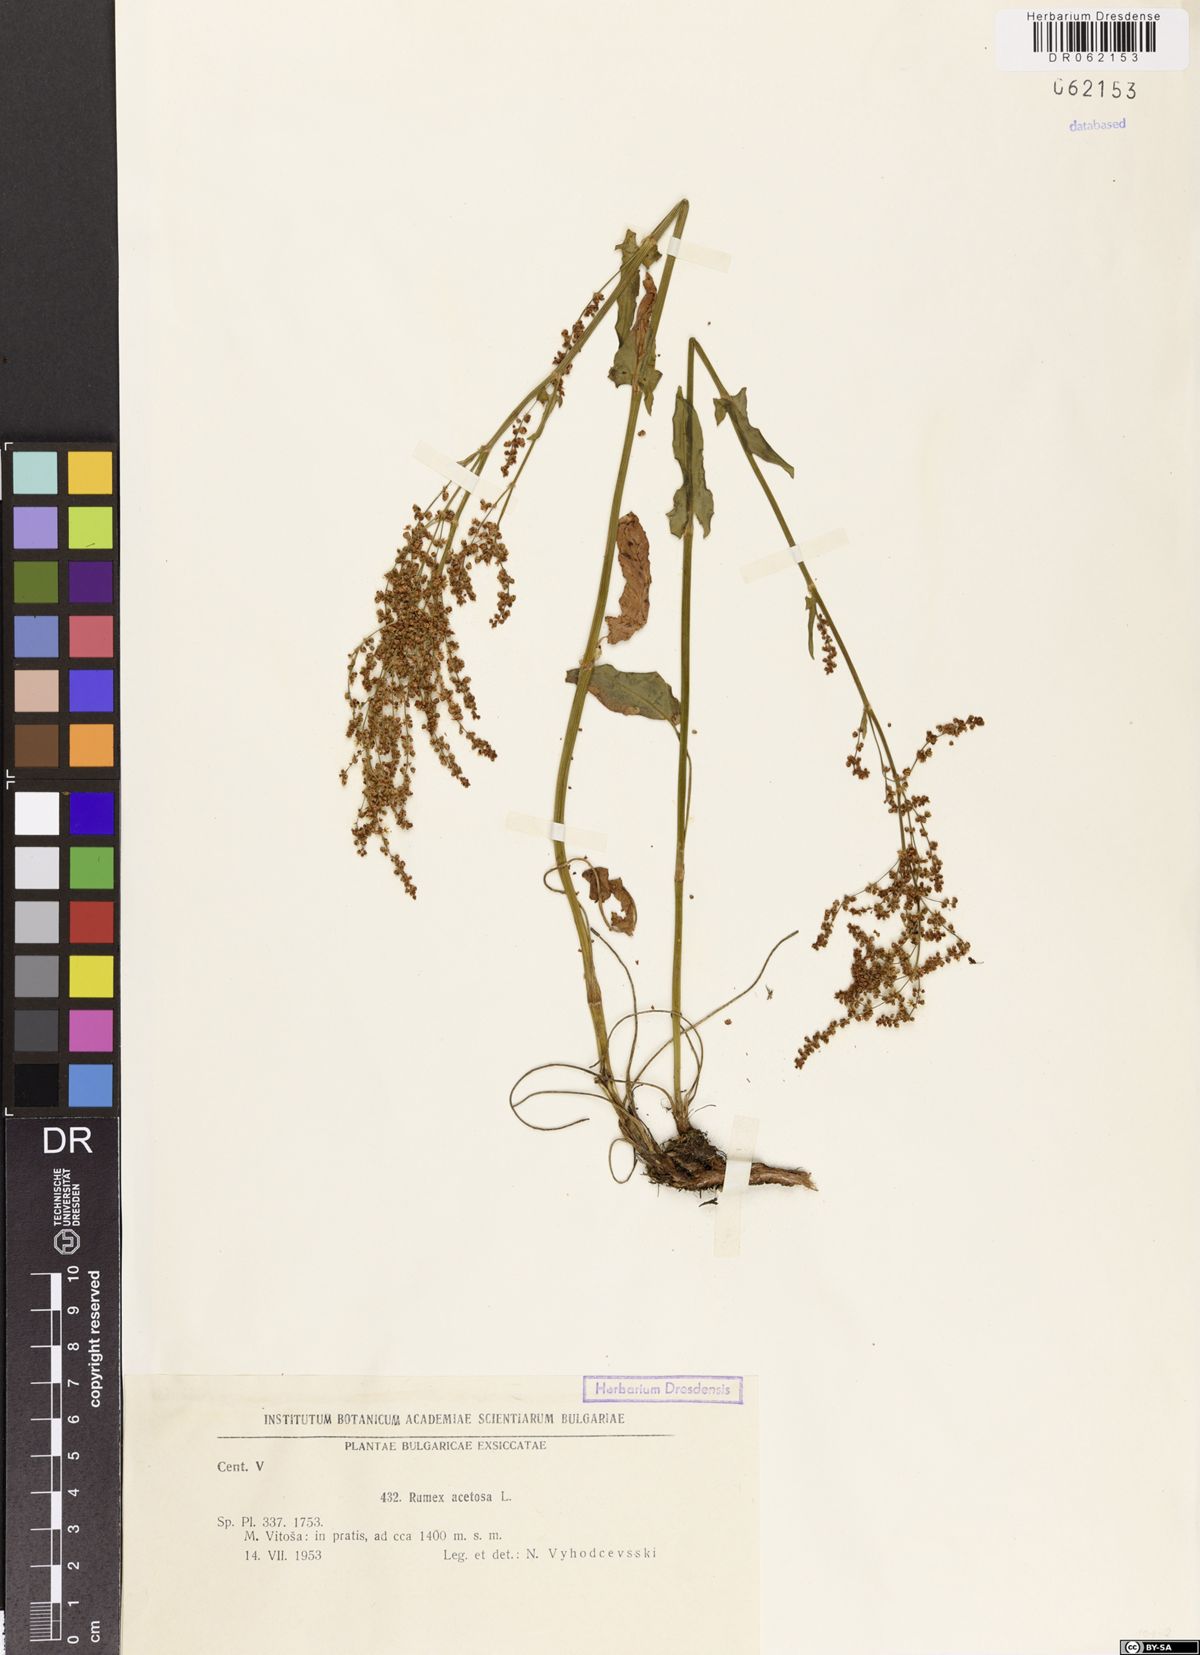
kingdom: Plantae
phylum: Tracheophyta
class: Magnoliopsida
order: Caryophyllales
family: Polygonaceae
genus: Rumex
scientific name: Rumex acetosa
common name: Garden sorrel
